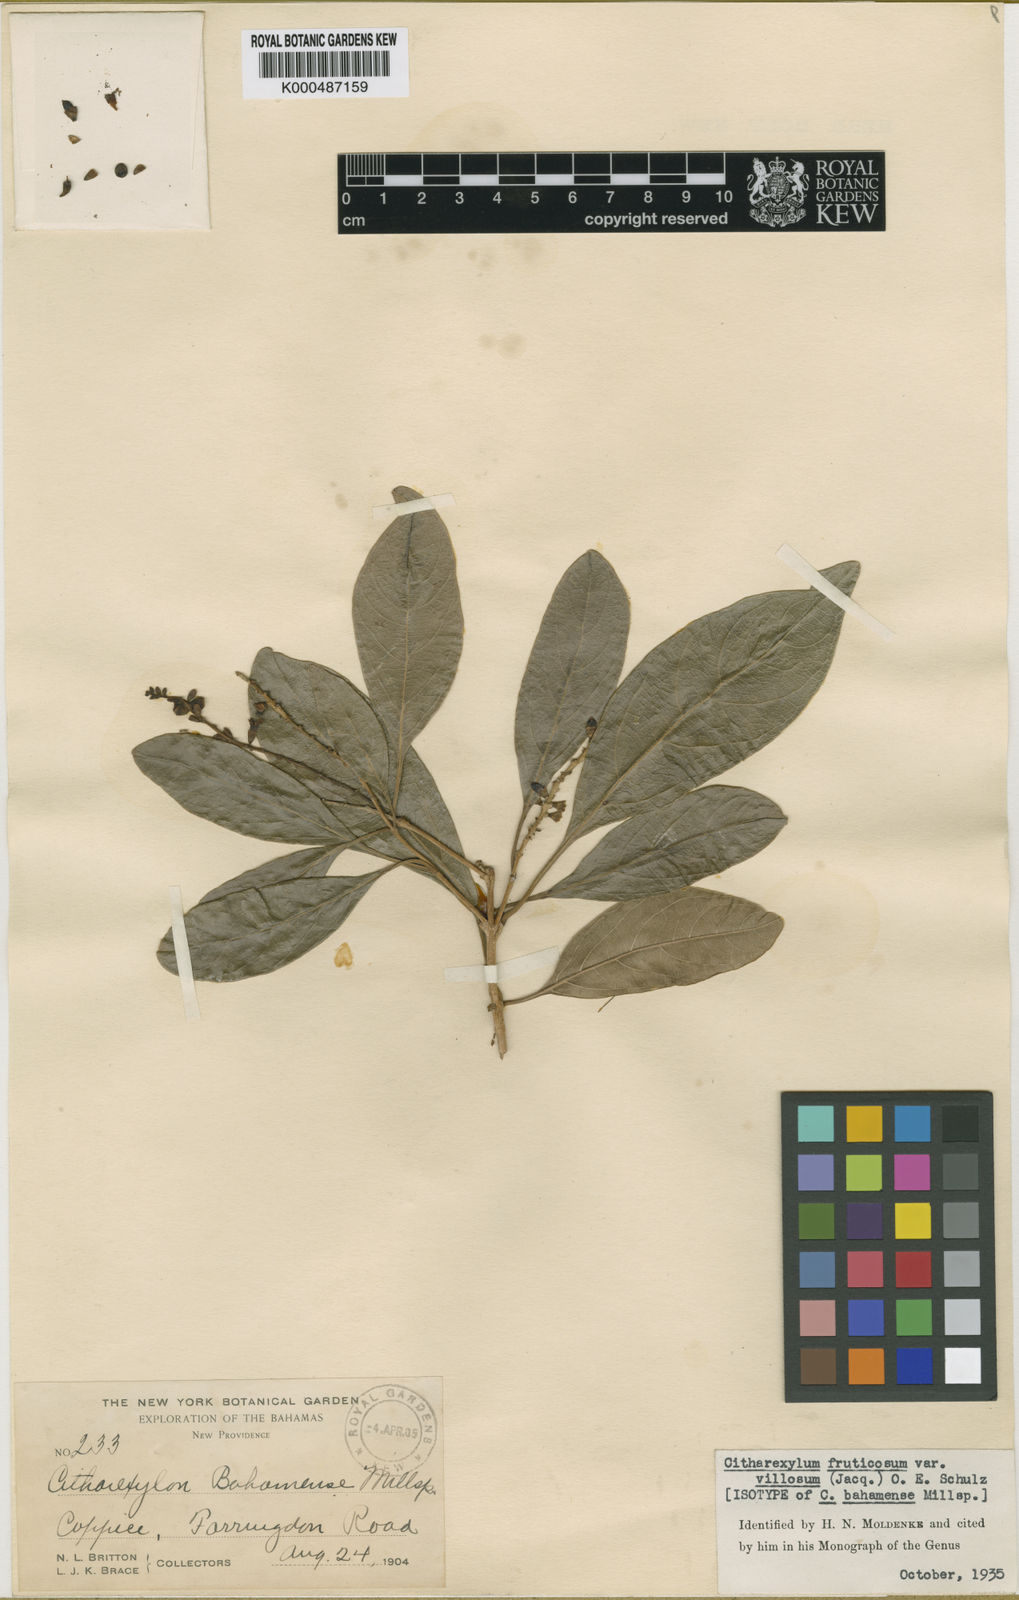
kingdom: Plantae
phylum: Tracheophyta
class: Magnoliopsida
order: Lamiales
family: Verbenaceae
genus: Citharexylum
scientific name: Citharexylum spinosum
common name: Fiddlewood
